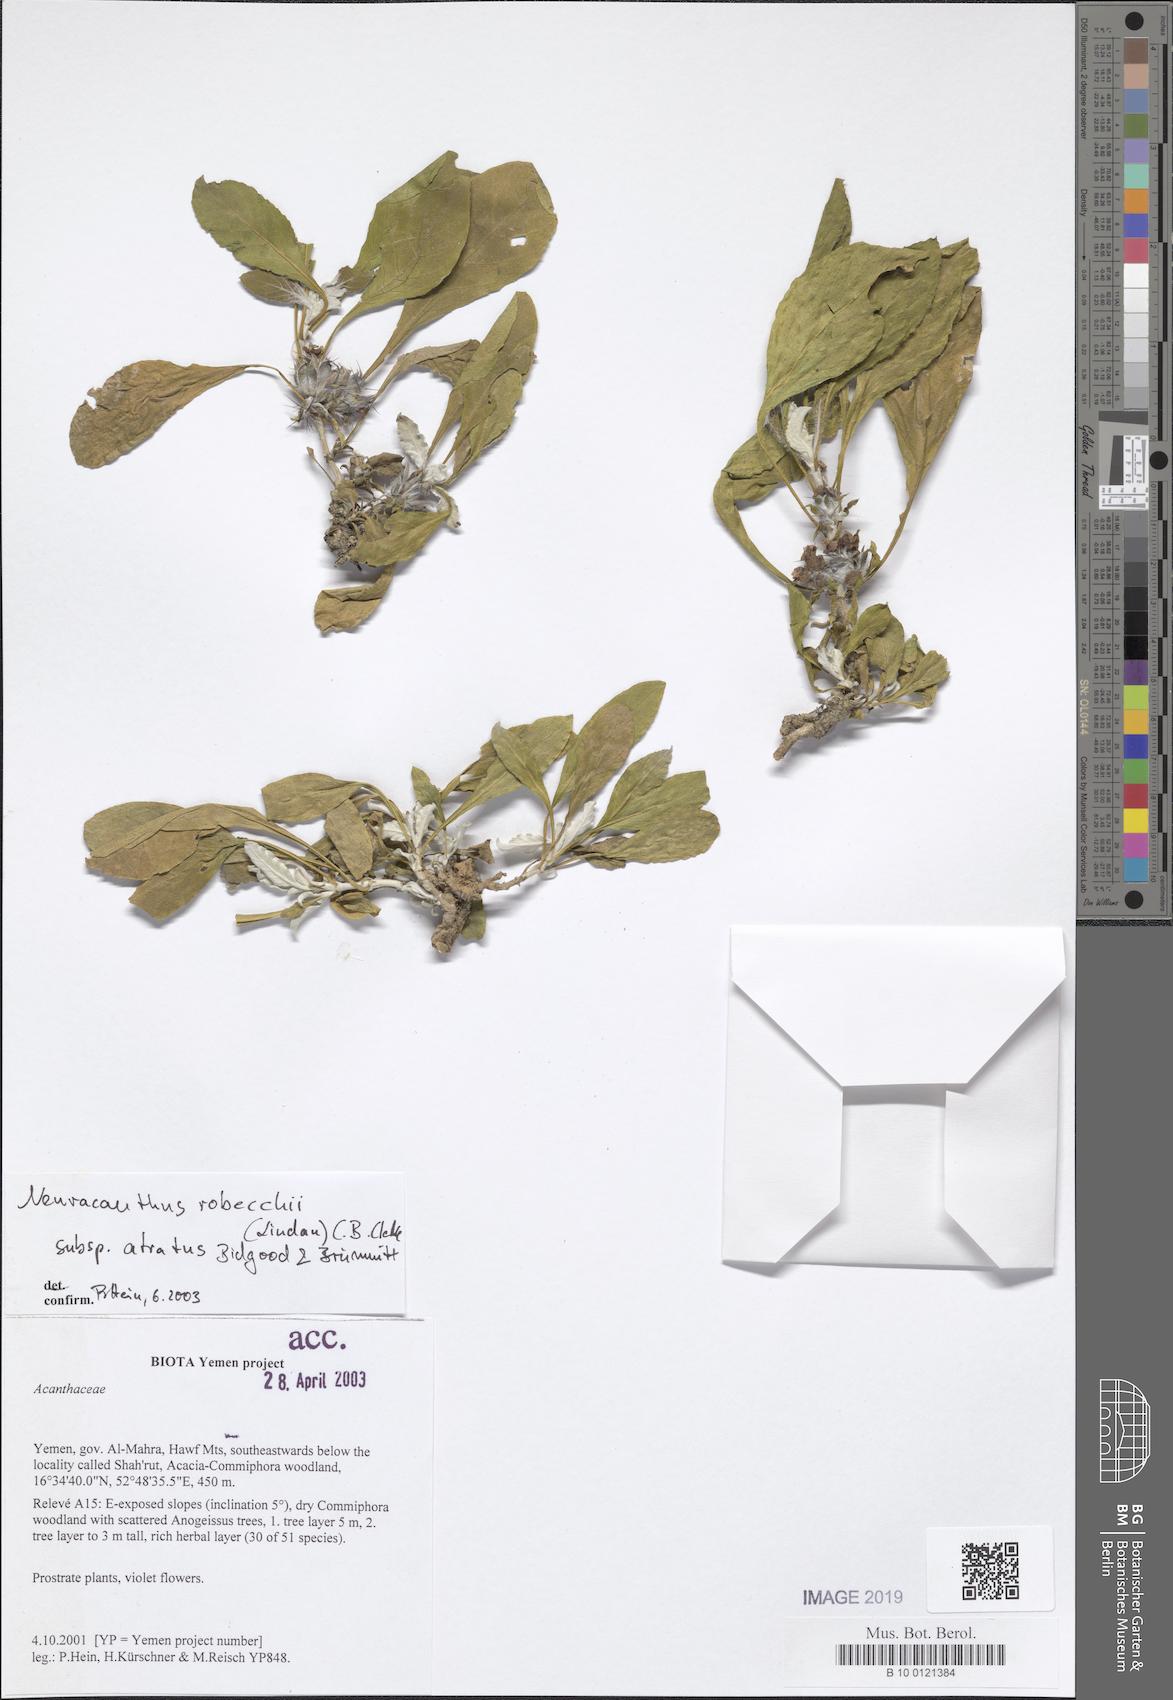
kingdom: Plantae
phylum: Tracheophyta
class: Magnoliopsida
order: Lamiales
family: Acanthaceae
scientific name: Acanthaceae
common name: Acanthaceae
